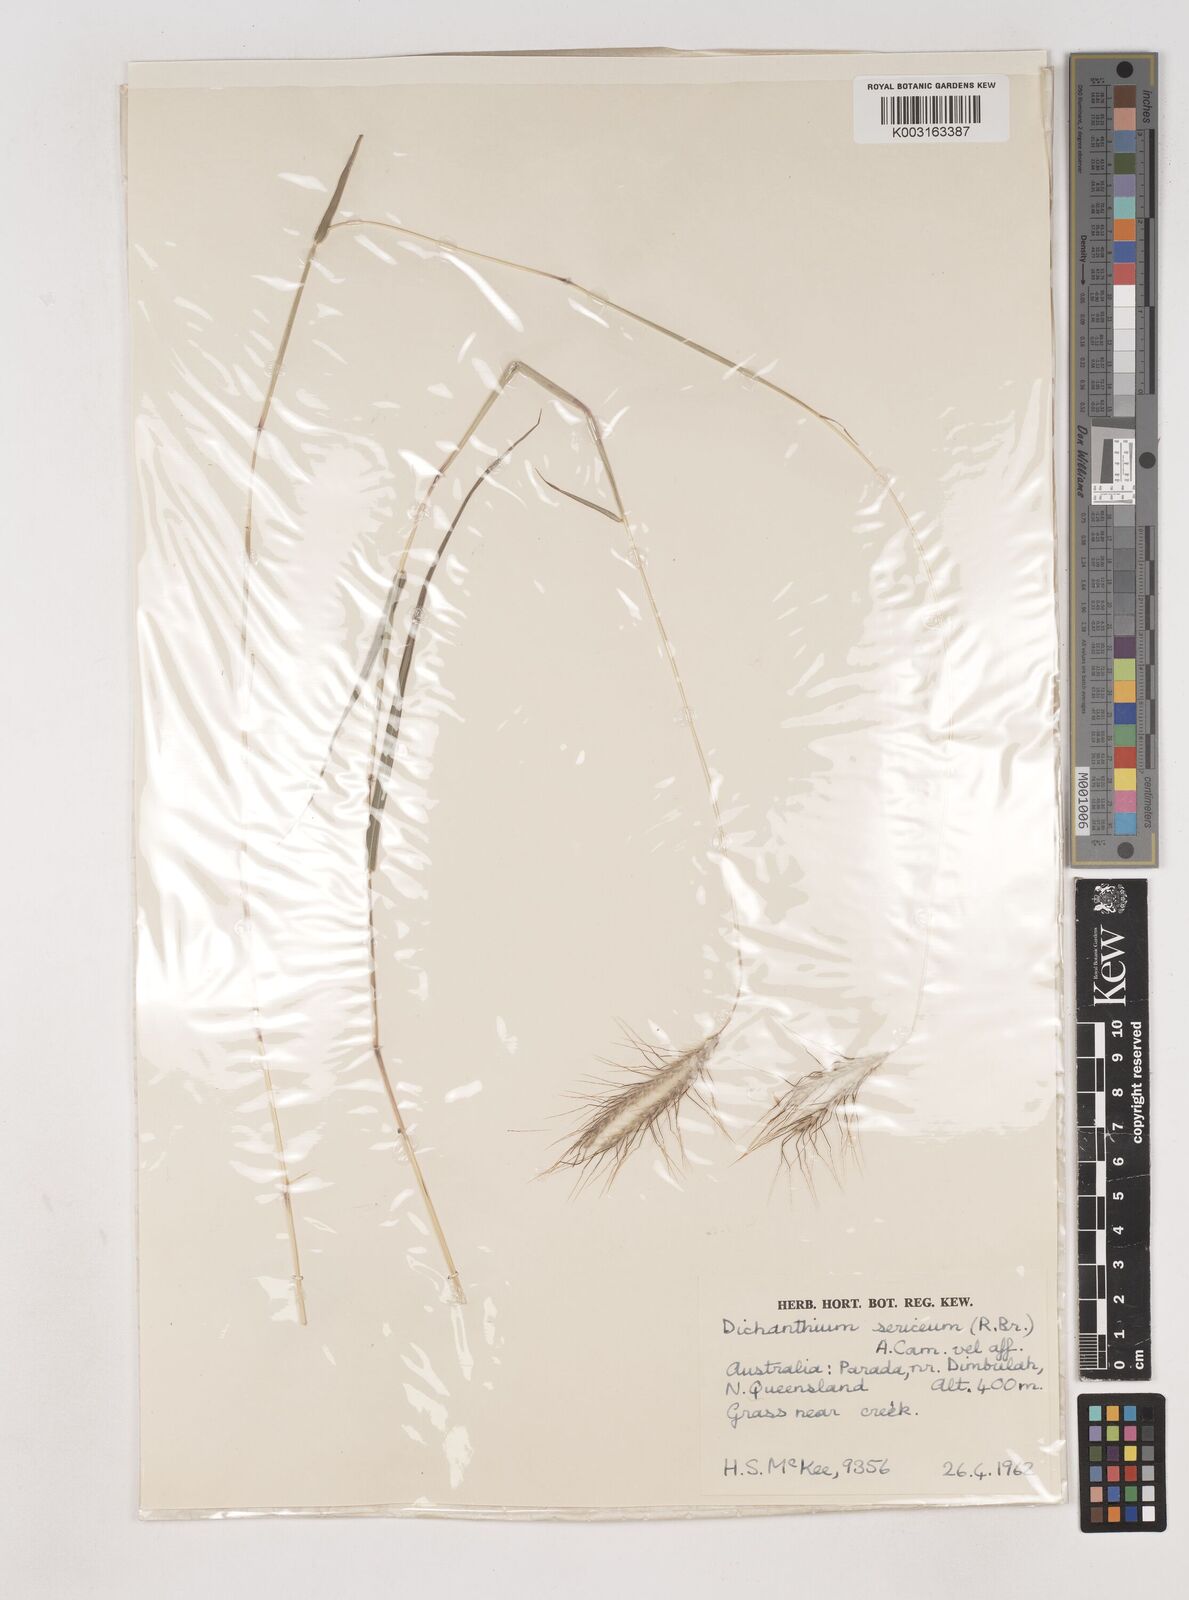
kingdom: Plantae
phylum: Tracheophyta
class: Liliopsida
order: Poales
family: Poaceae
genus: Dichanthium
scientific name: Dichanthium sericeum
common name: Silky bluestem
